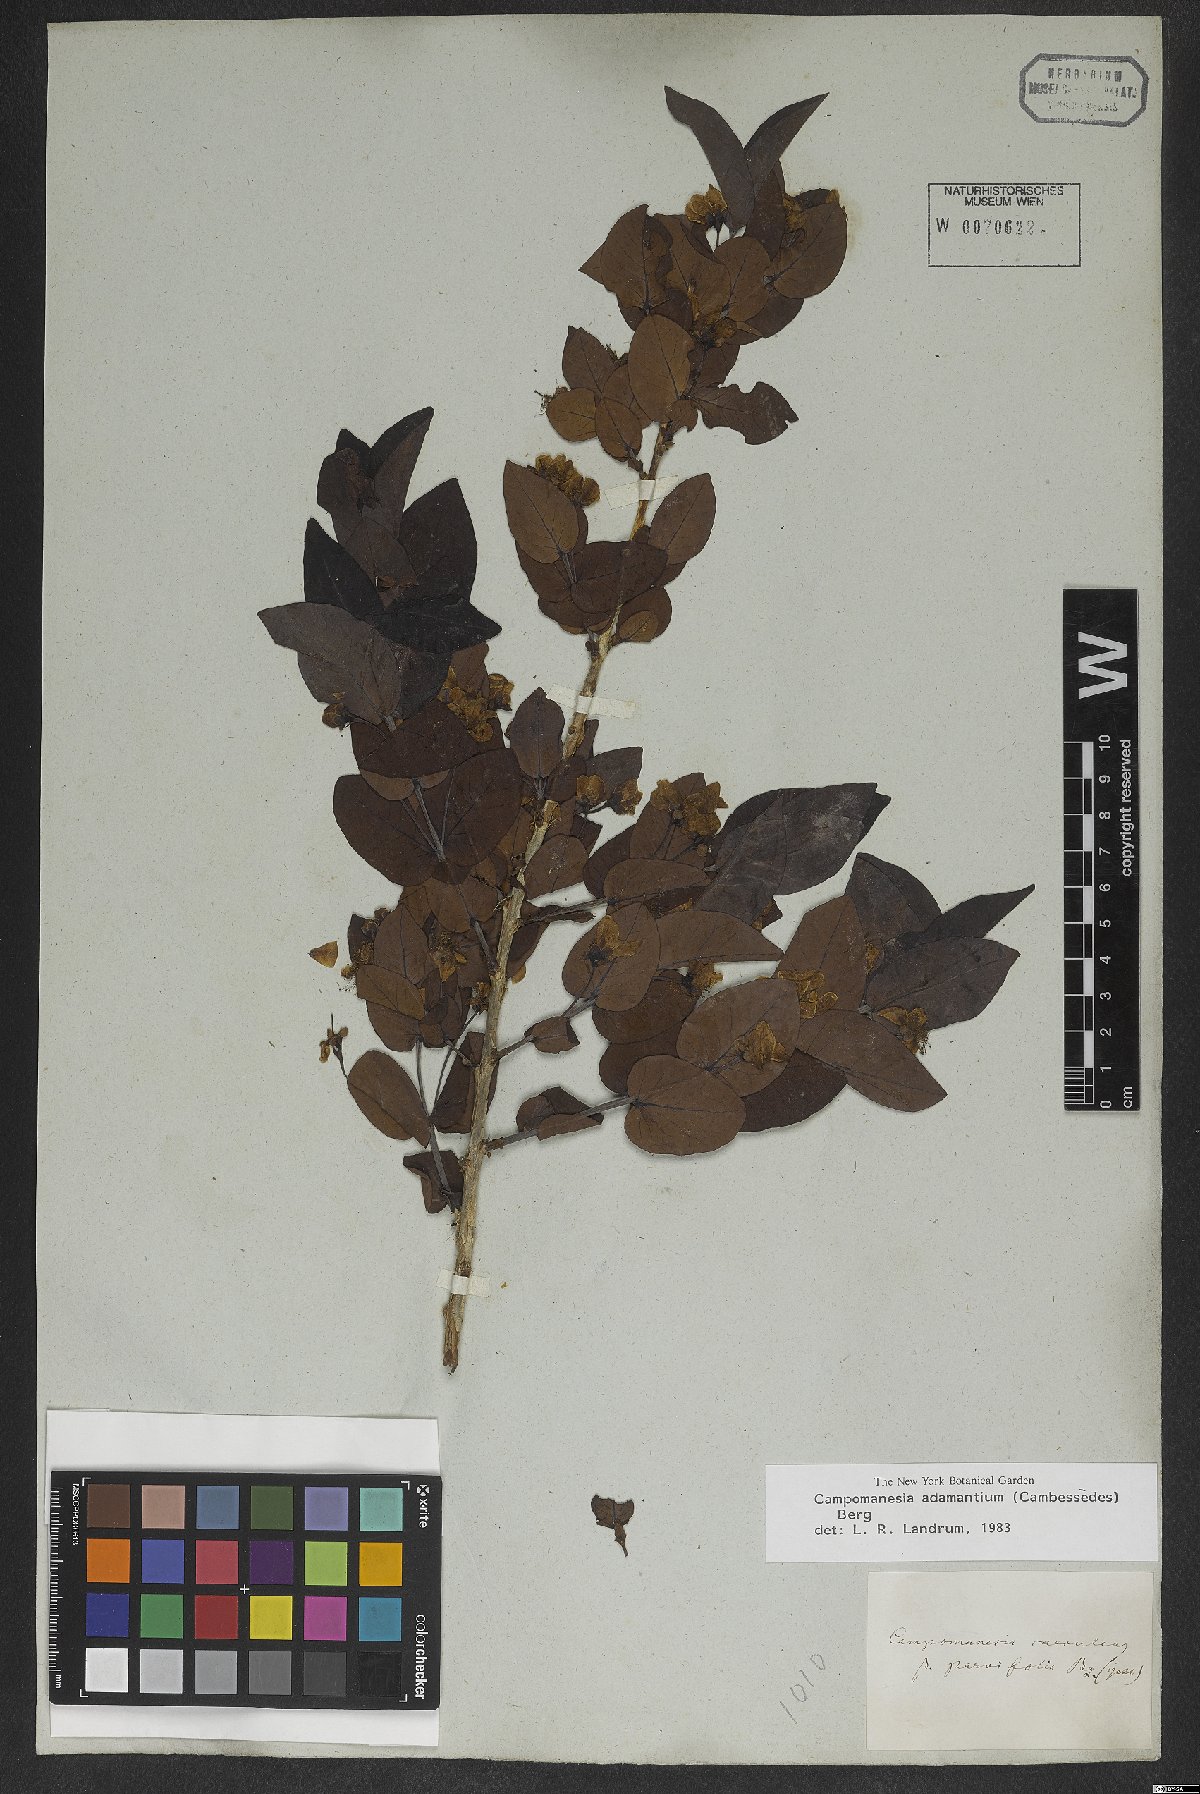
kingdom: Plantae
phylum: Tracheophyta
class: Magnoliopsida
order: Myrtales
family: Myrtaceae
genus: Campomanesia
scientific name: Campomanesia adamantium
